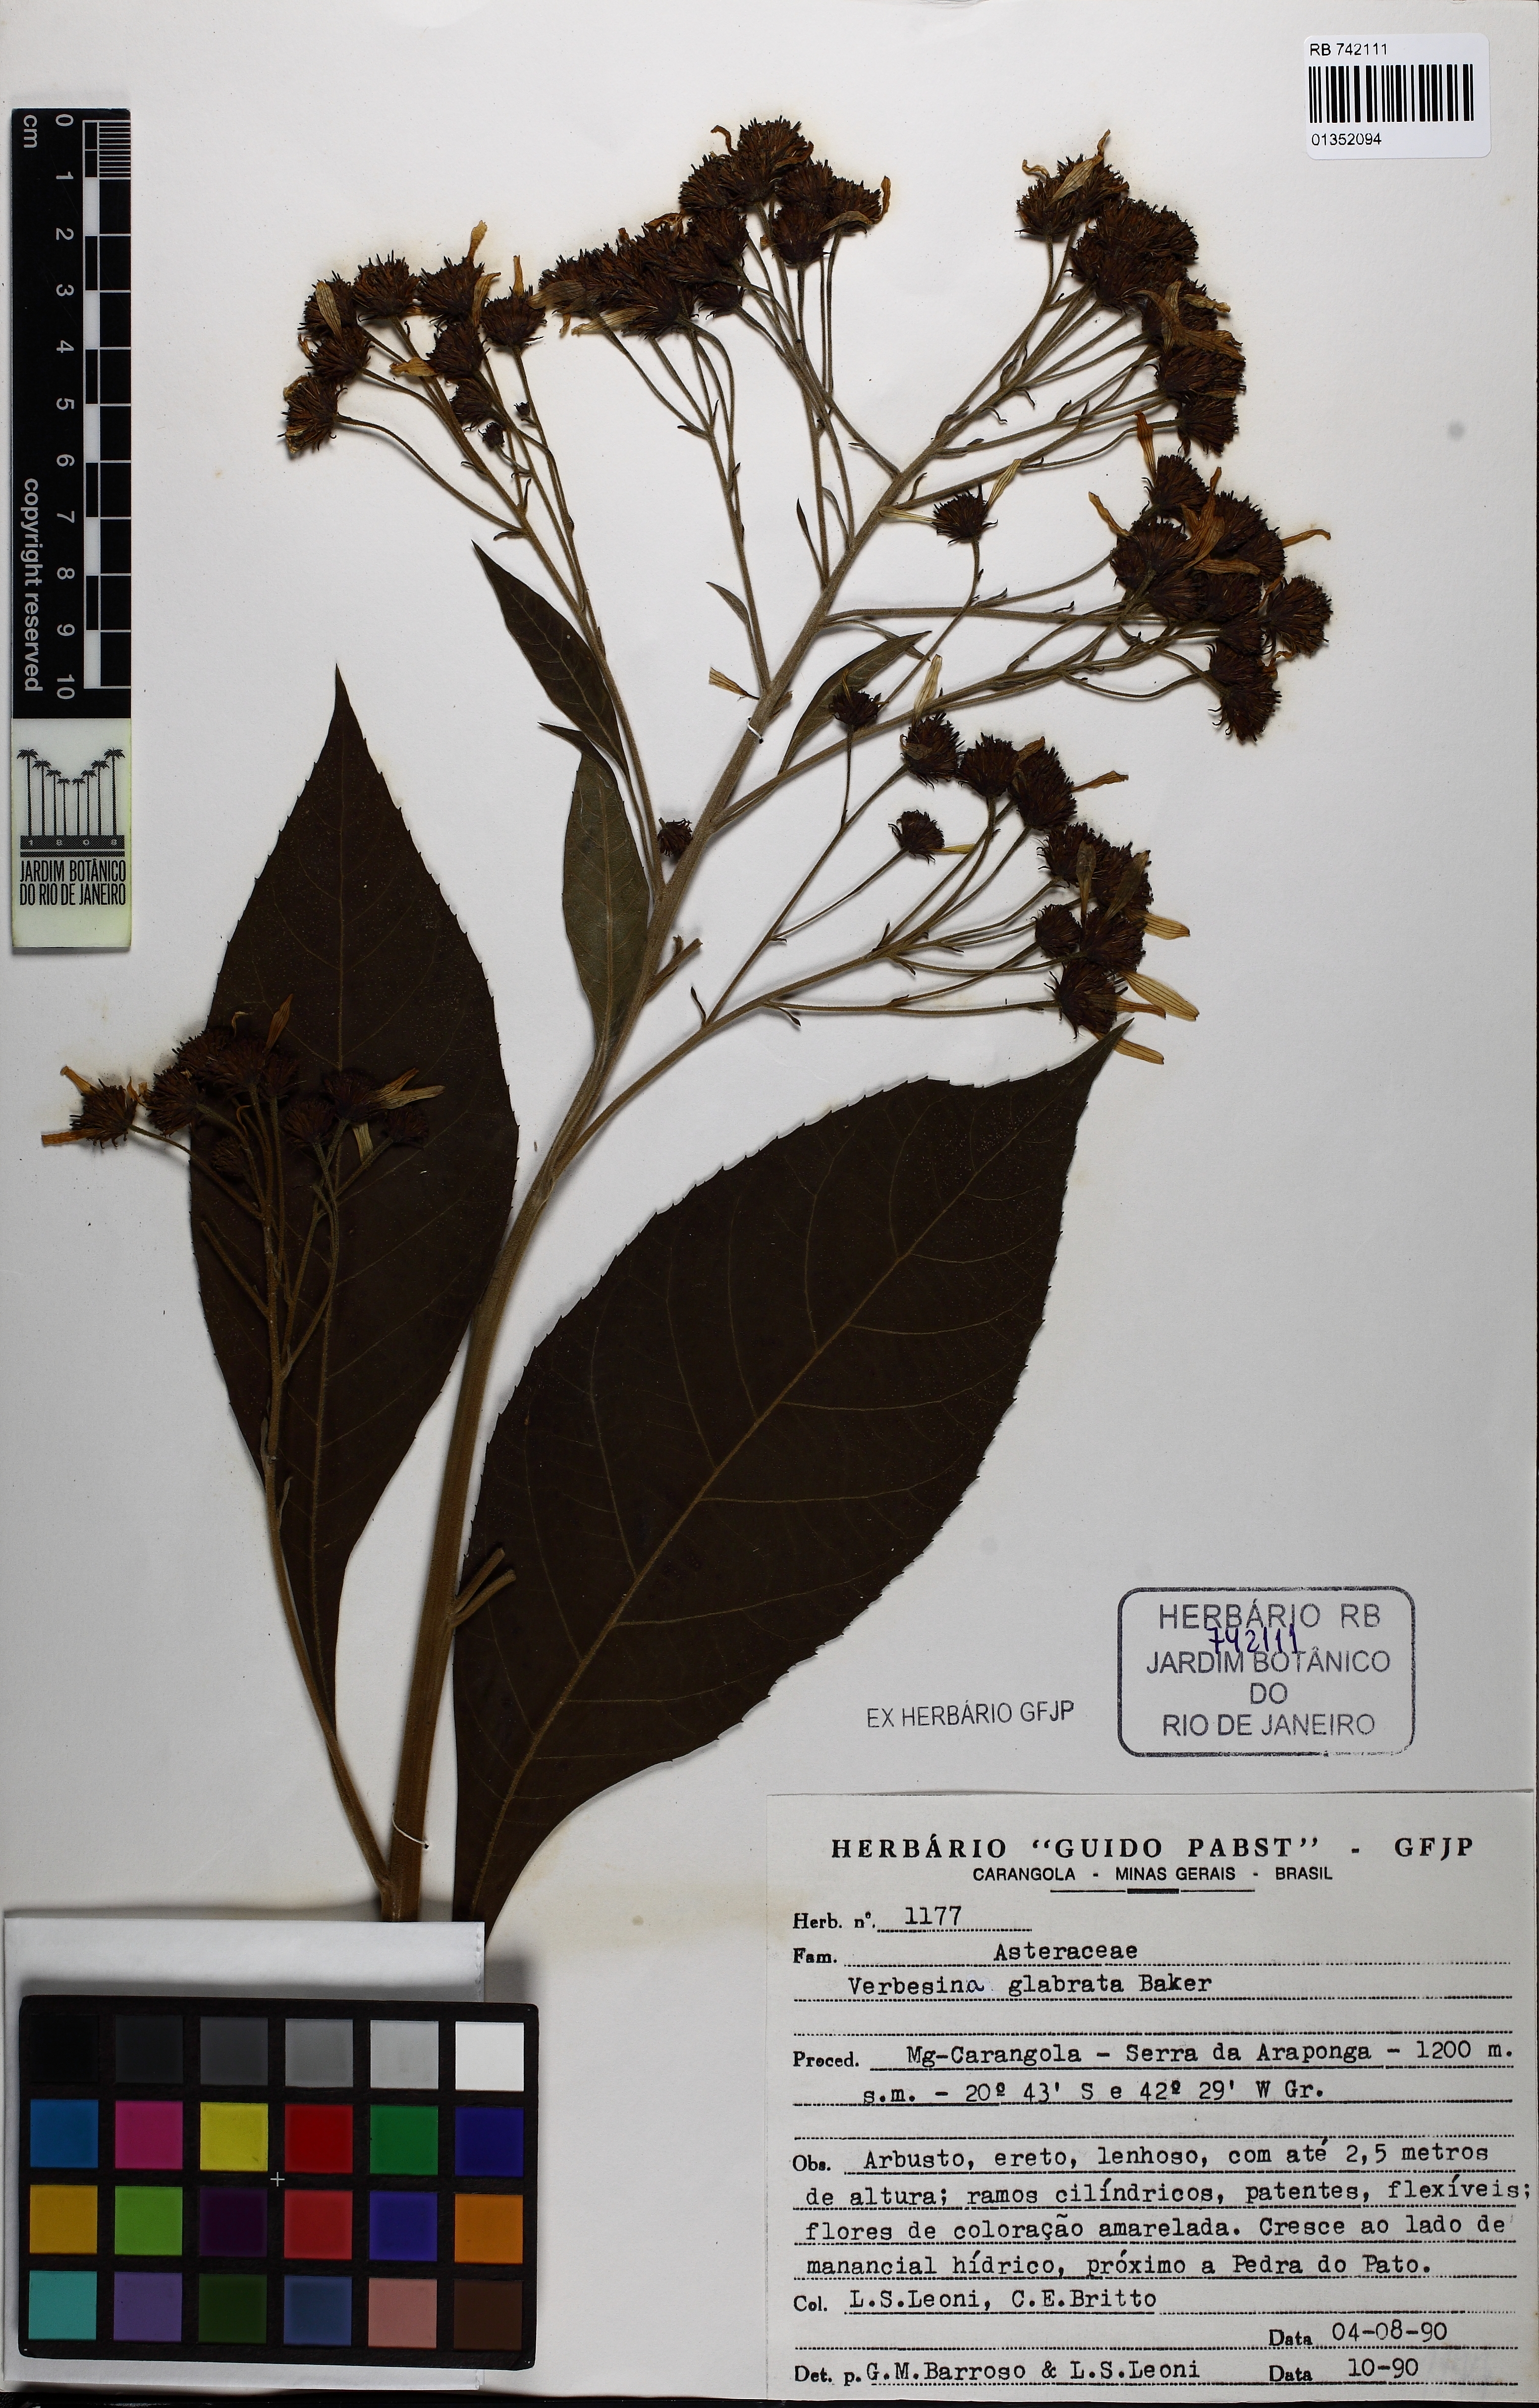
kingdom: Plantae
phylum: Tracheophyta
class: Magnoliopsida
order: Asterales
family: Asteraceae
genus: Verbesina
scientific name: Verbesina glabrata
